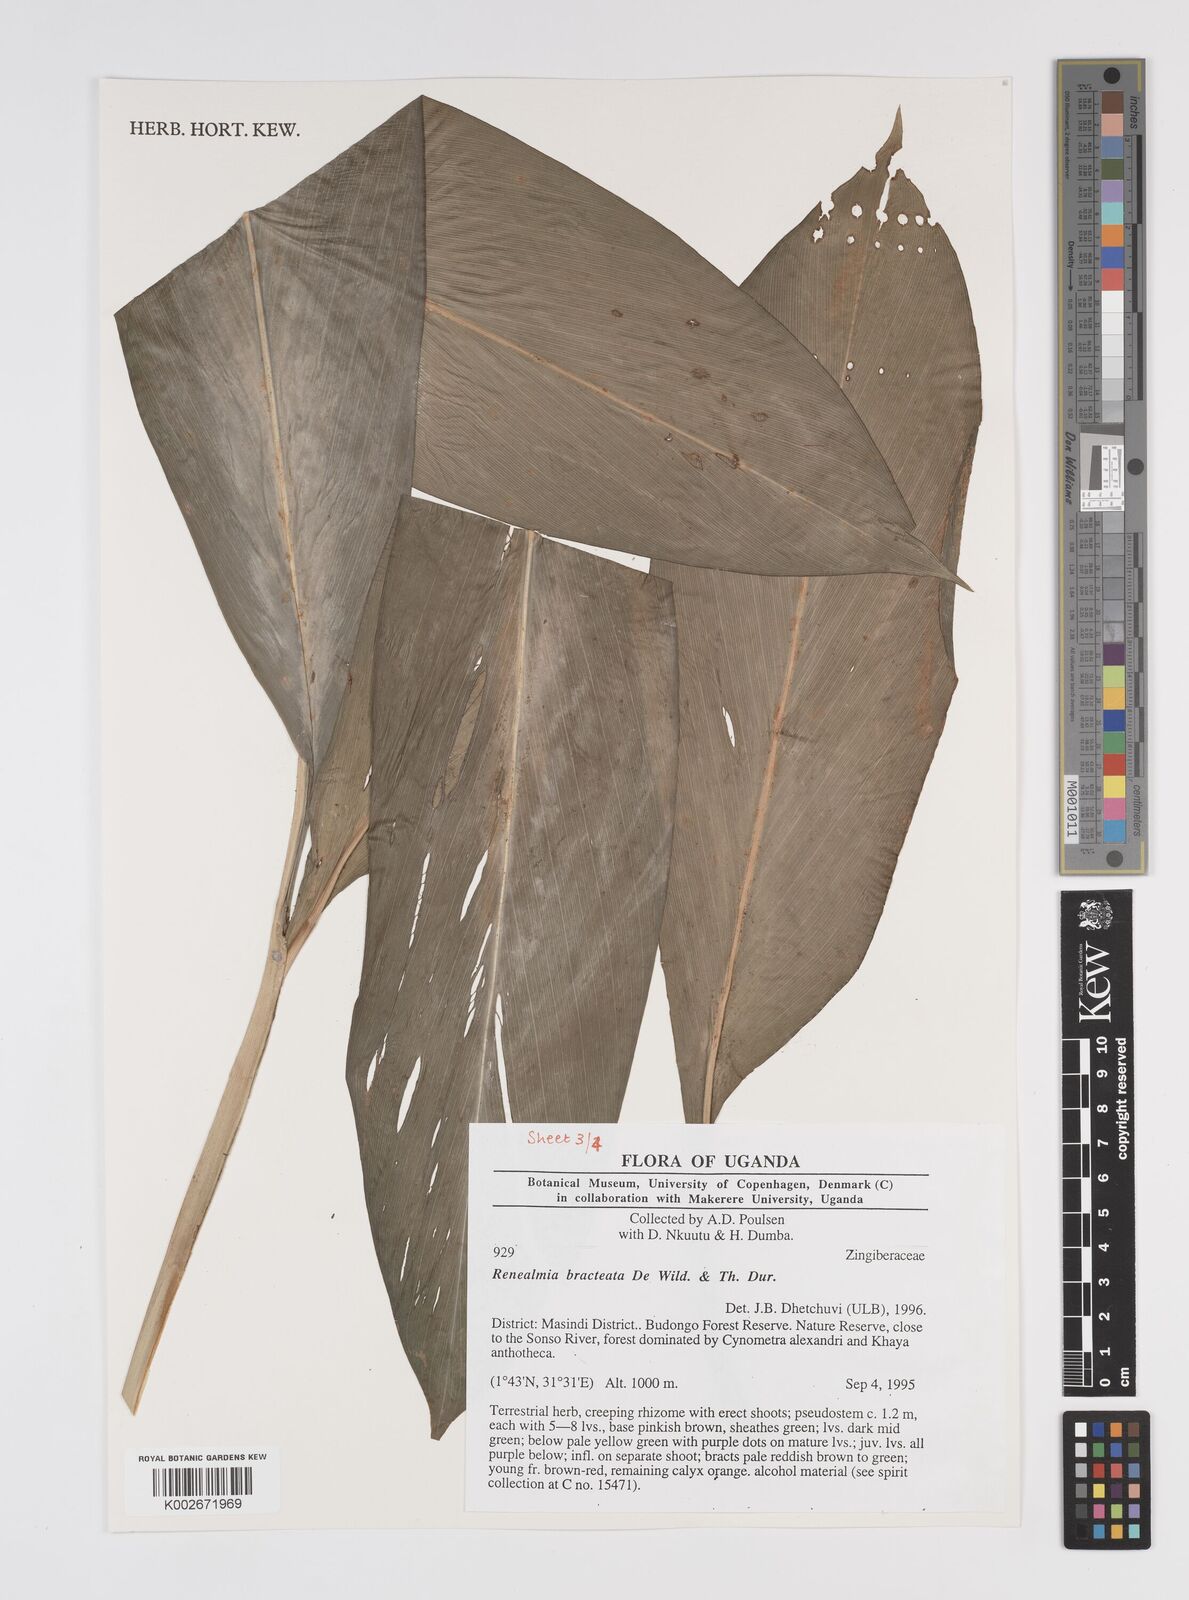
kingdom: Plantae
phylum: Tracheophyta
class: Liliopsida
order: Zingiberales
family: Zingiberaceae
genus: Renealmia
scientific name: Renealmia bracteata
